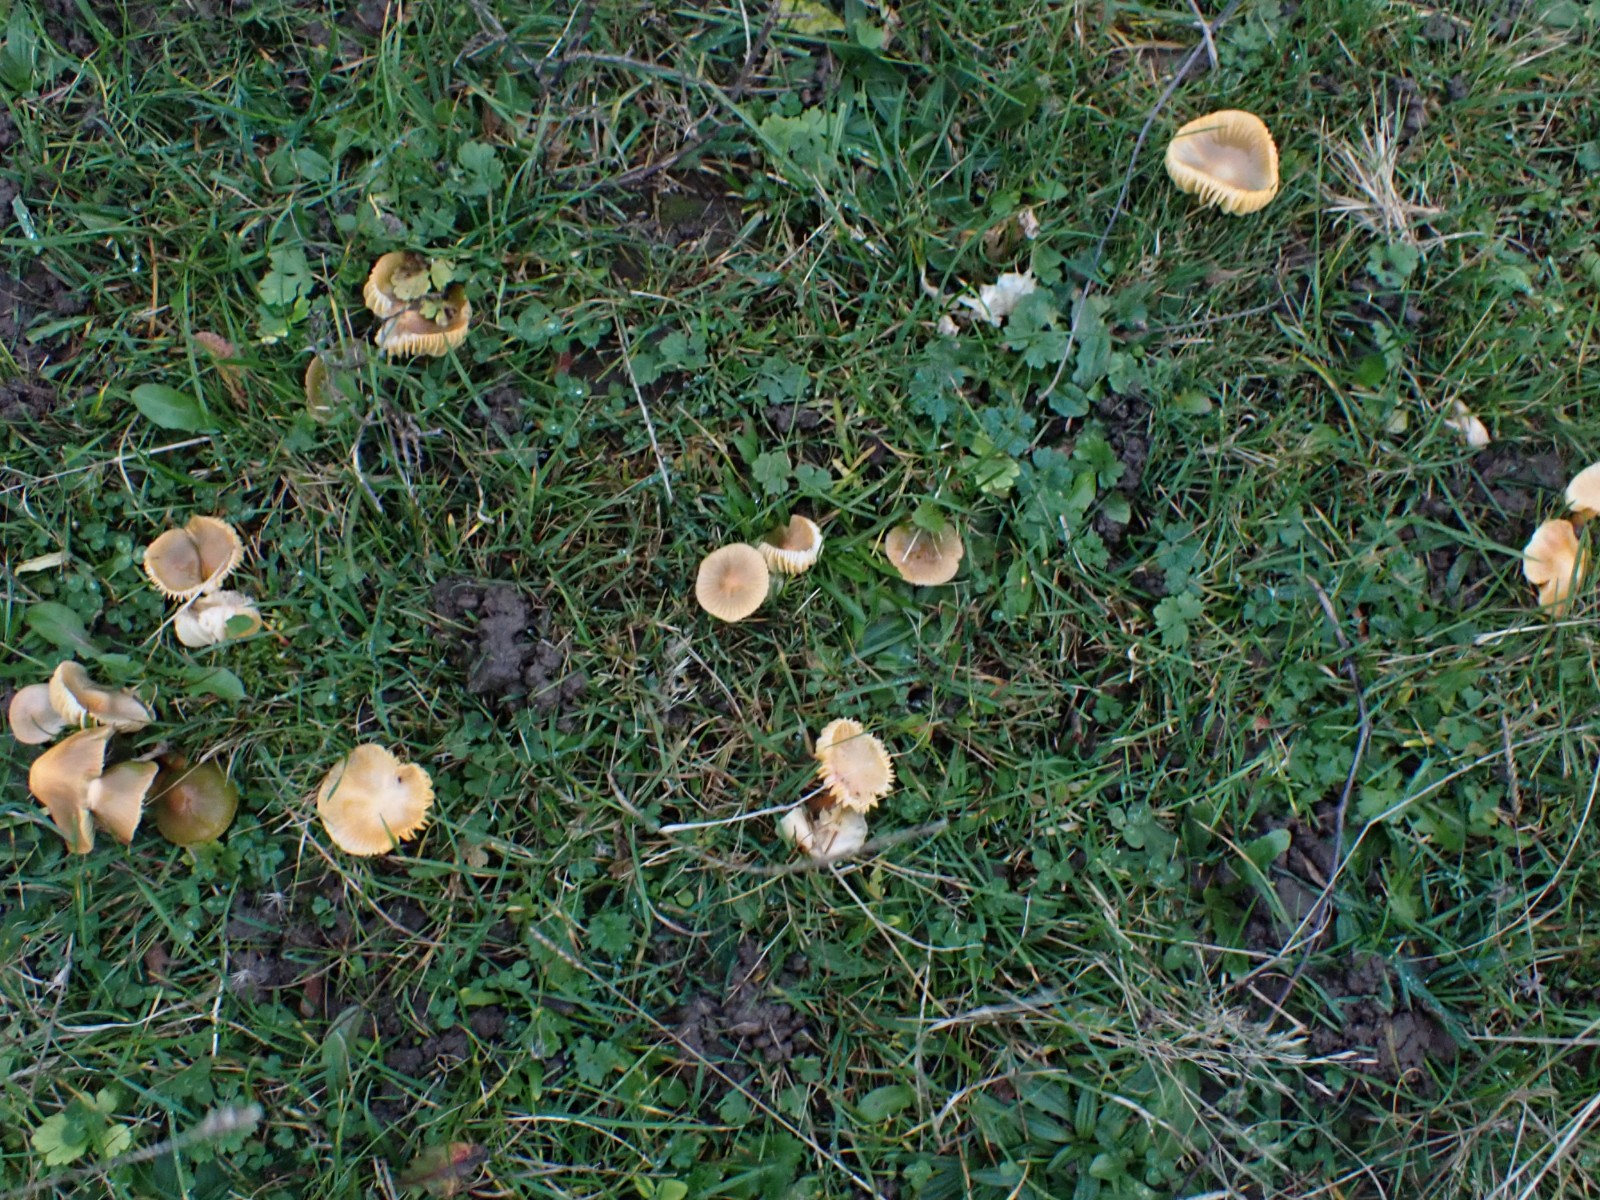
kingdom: Fungi
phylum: Basidiomycota
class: Agaricomycetes
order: Agaricales
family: Hygrophoraceae
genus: Gliophorus
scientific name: Gliophorus psittacinus
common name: papegøje-vokshat
